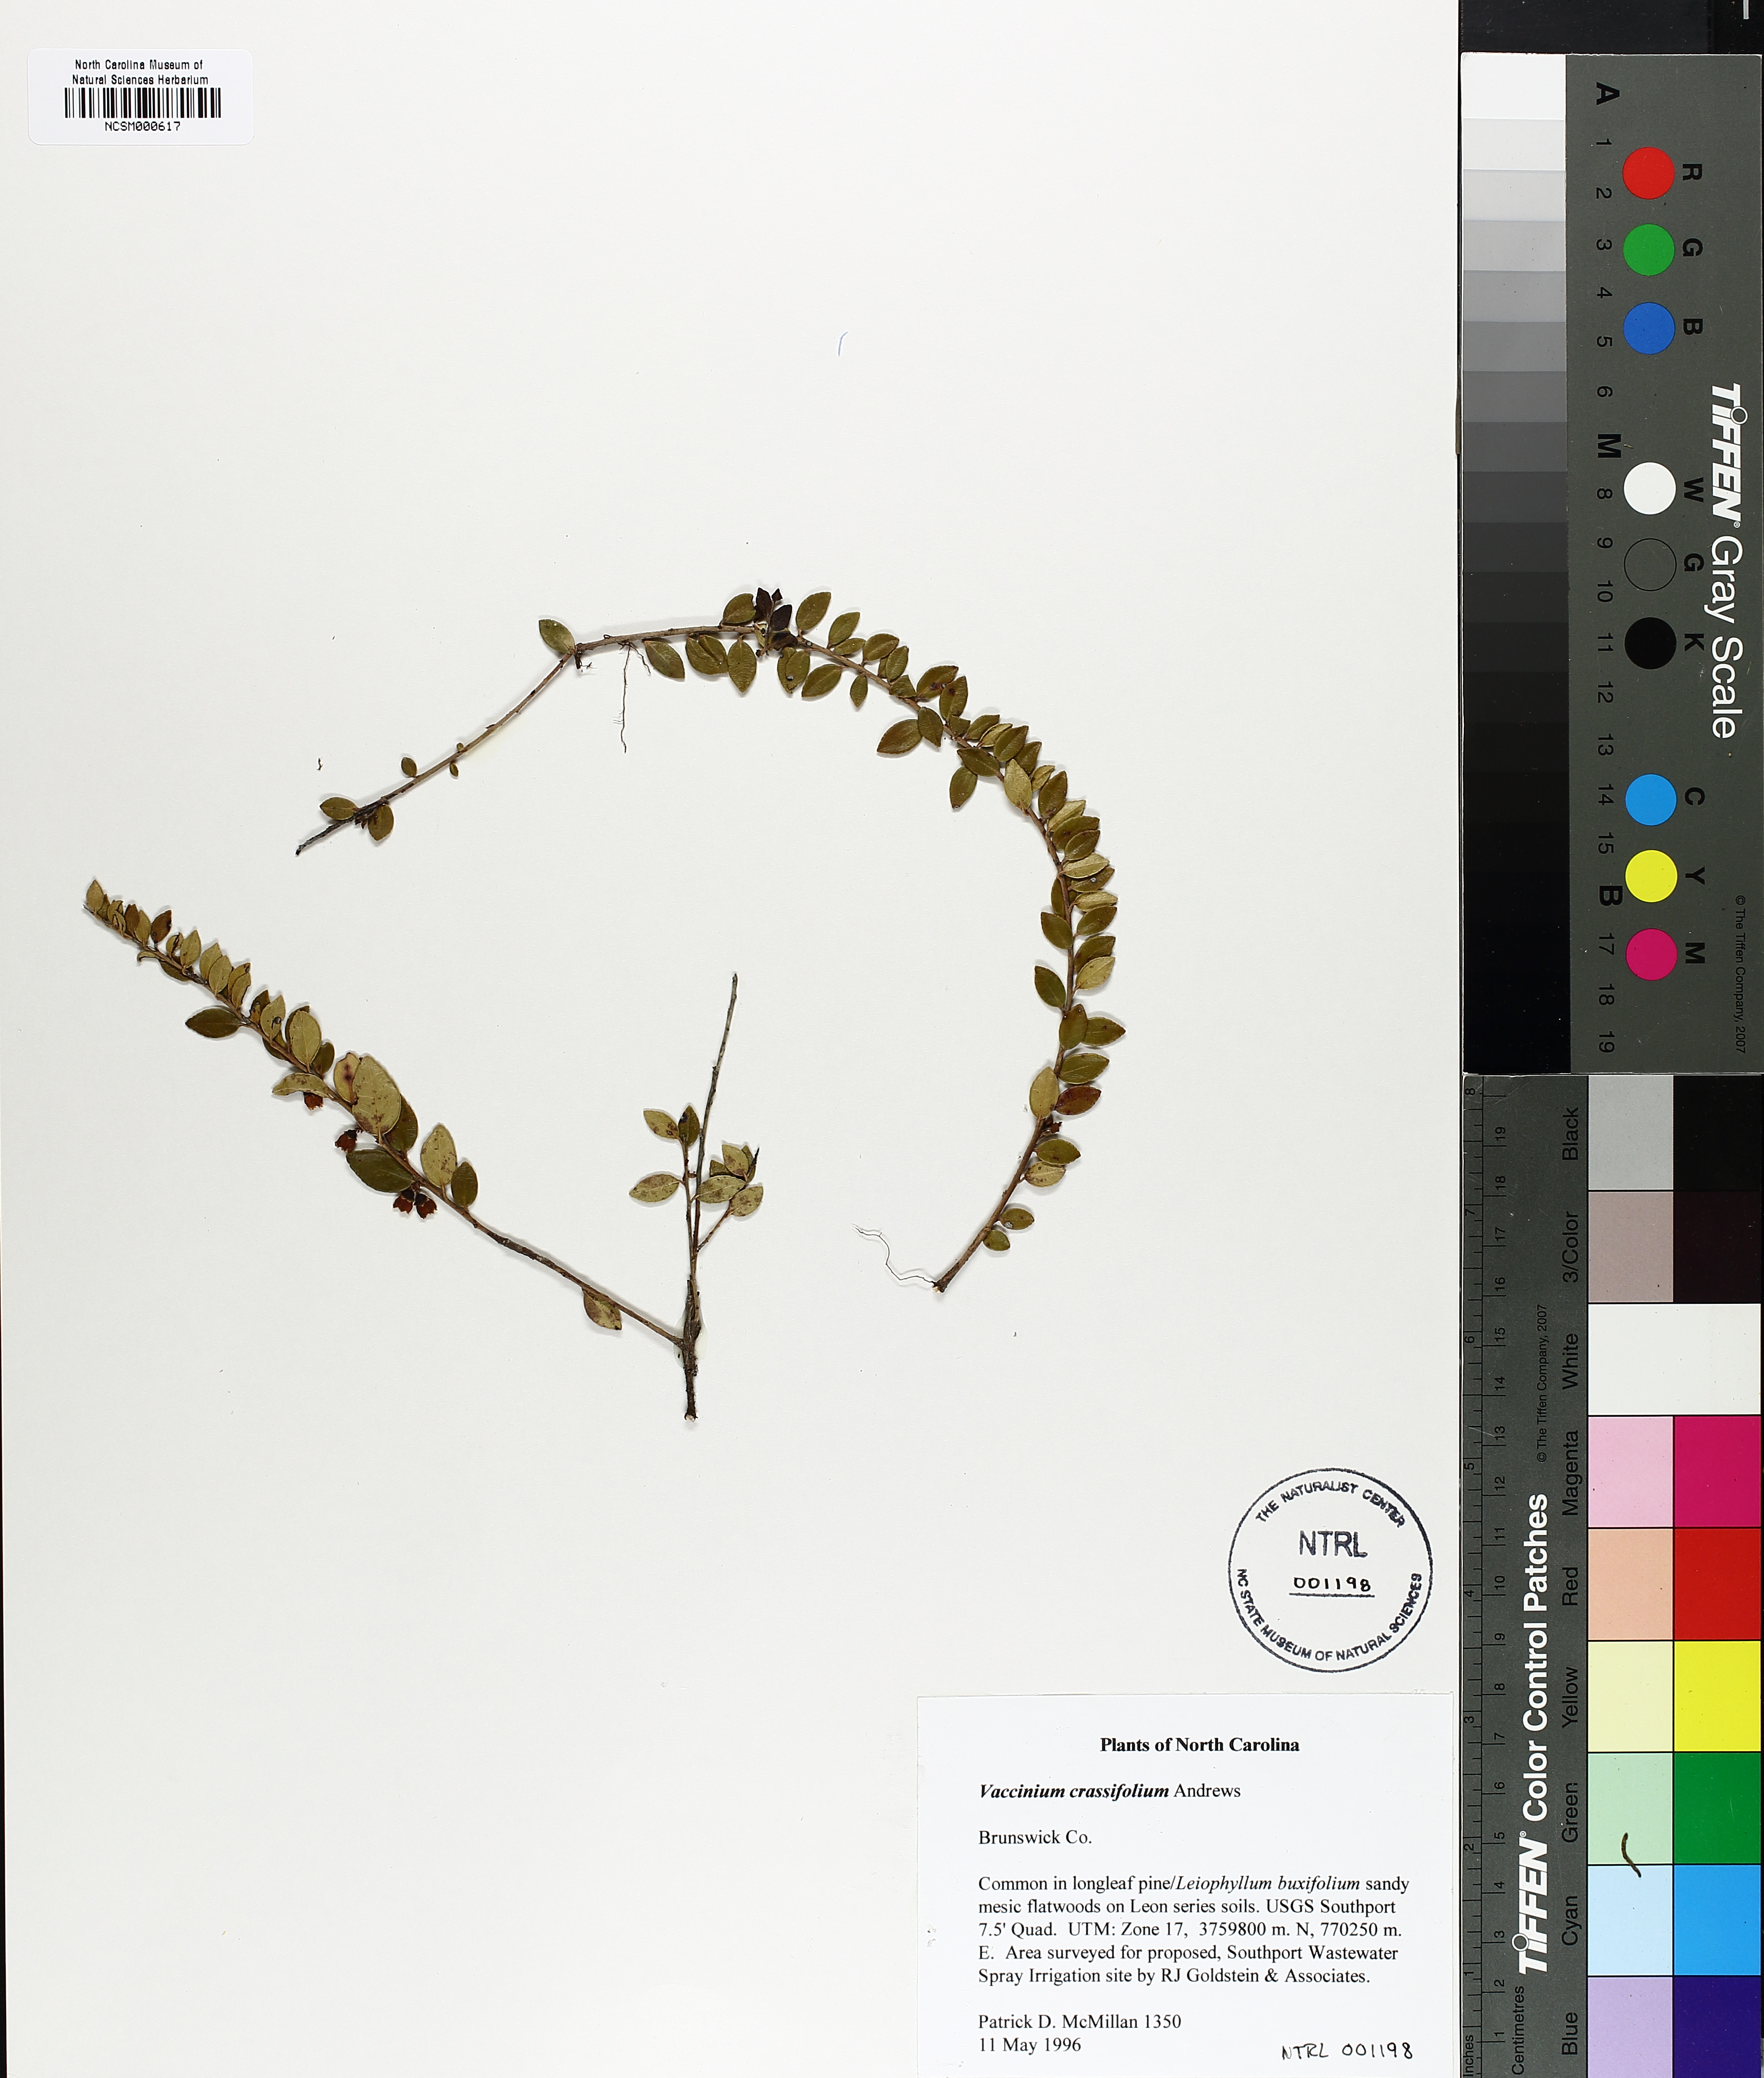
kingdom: Plantae
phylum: Tracheophyta
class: Magnoliopsida
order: Ericales
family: Ericaceae
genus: Vaccinium
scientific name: Vaccinium crassifolium
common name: Creeping blueberry
